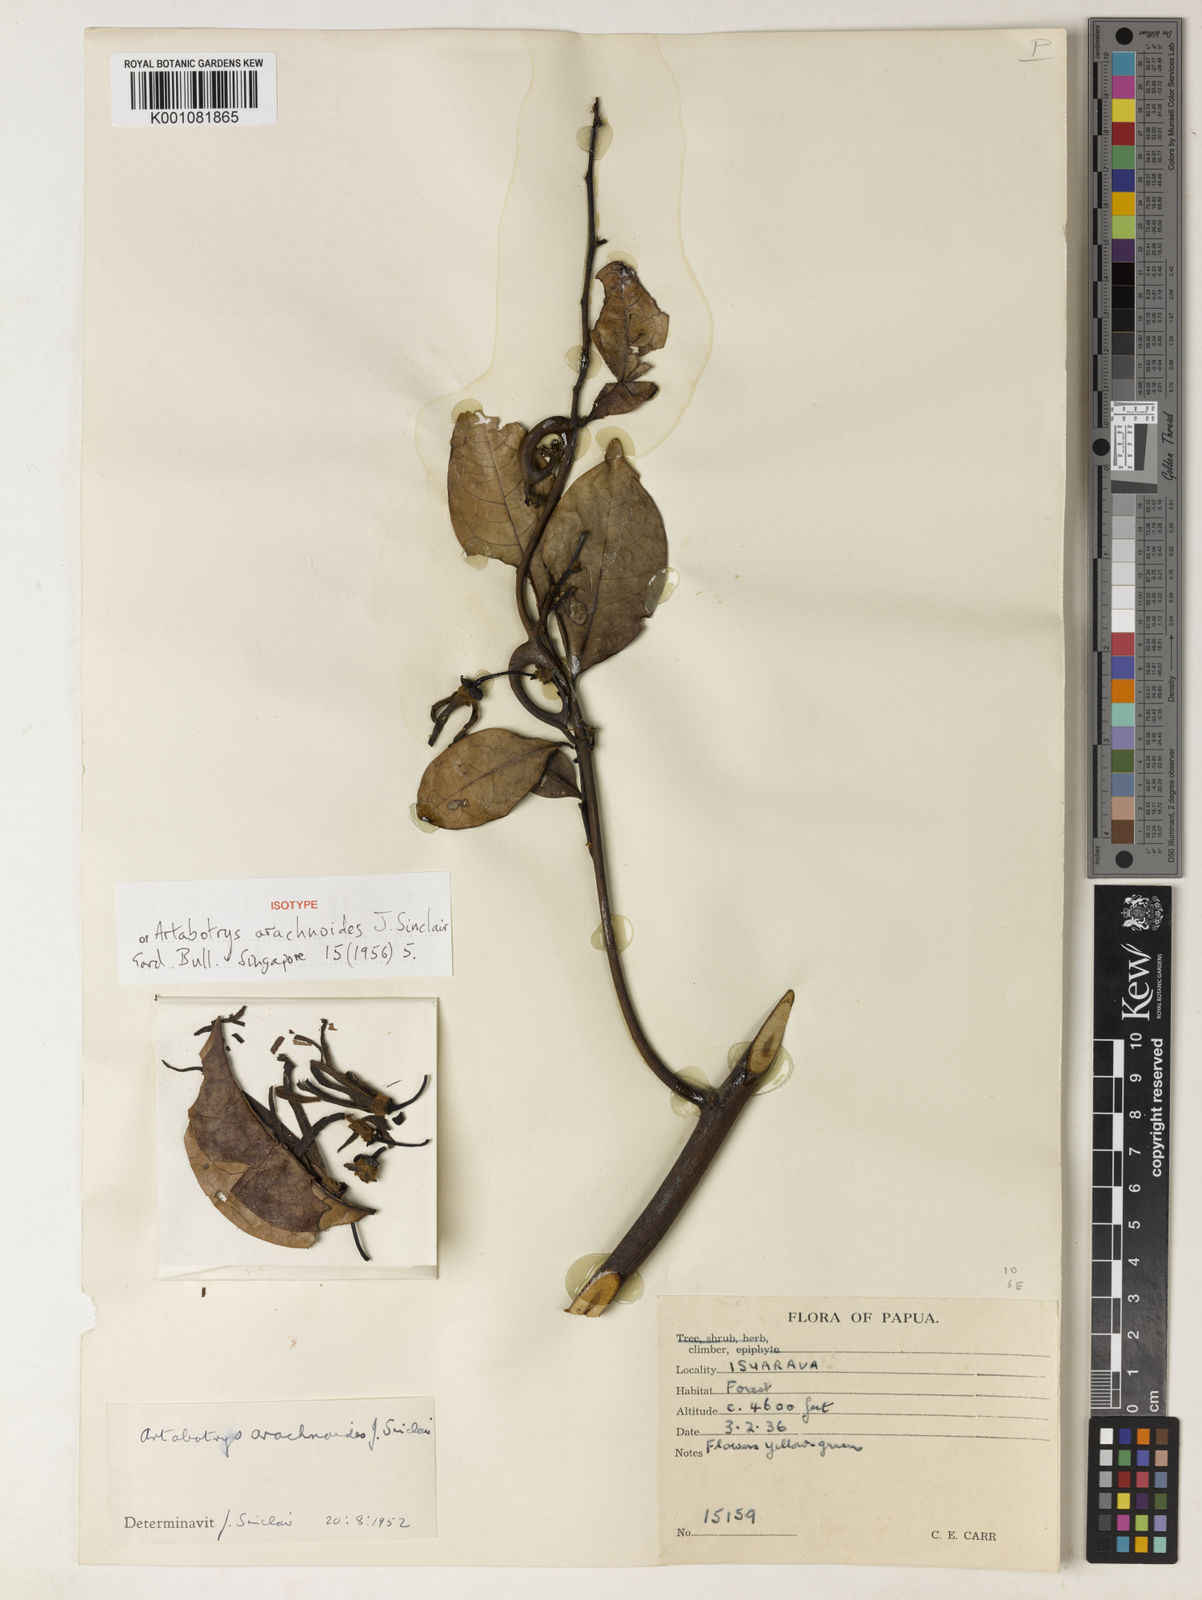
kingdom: Plantae
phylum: Tracheophyta
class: Magnoliopsida
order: Magnoliales
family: Annonaceae
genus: Artabotrys
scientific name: Artabotrys arachnoides
